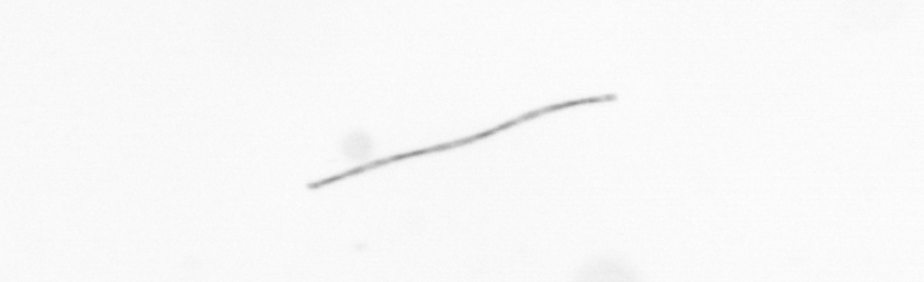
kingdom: Chromista
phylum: Ochrophyta
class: Bacillariophyceae
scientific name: Bacillariophyceae
